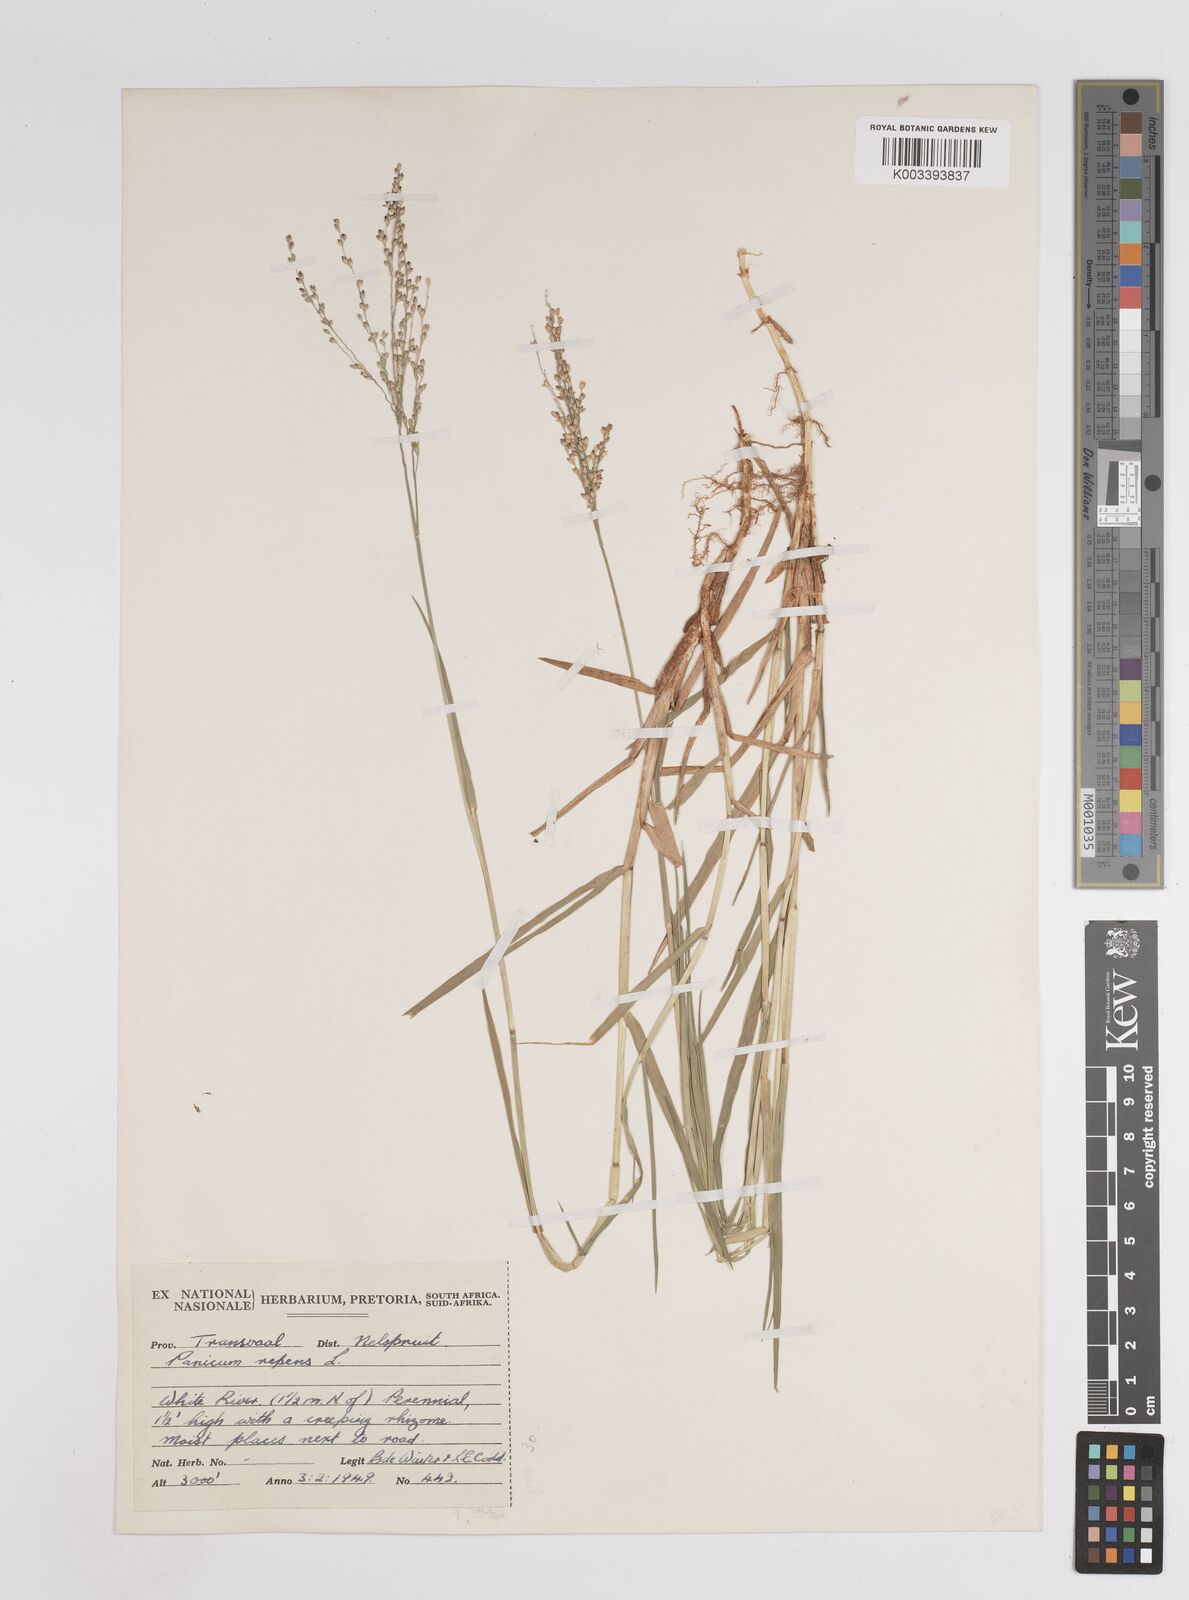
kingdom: Plantae
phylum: Tracheophyta
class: Liliopsida
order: Poales
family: Poaceae
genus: Panicum
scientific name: Panicum repens
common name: Torpedo grass
